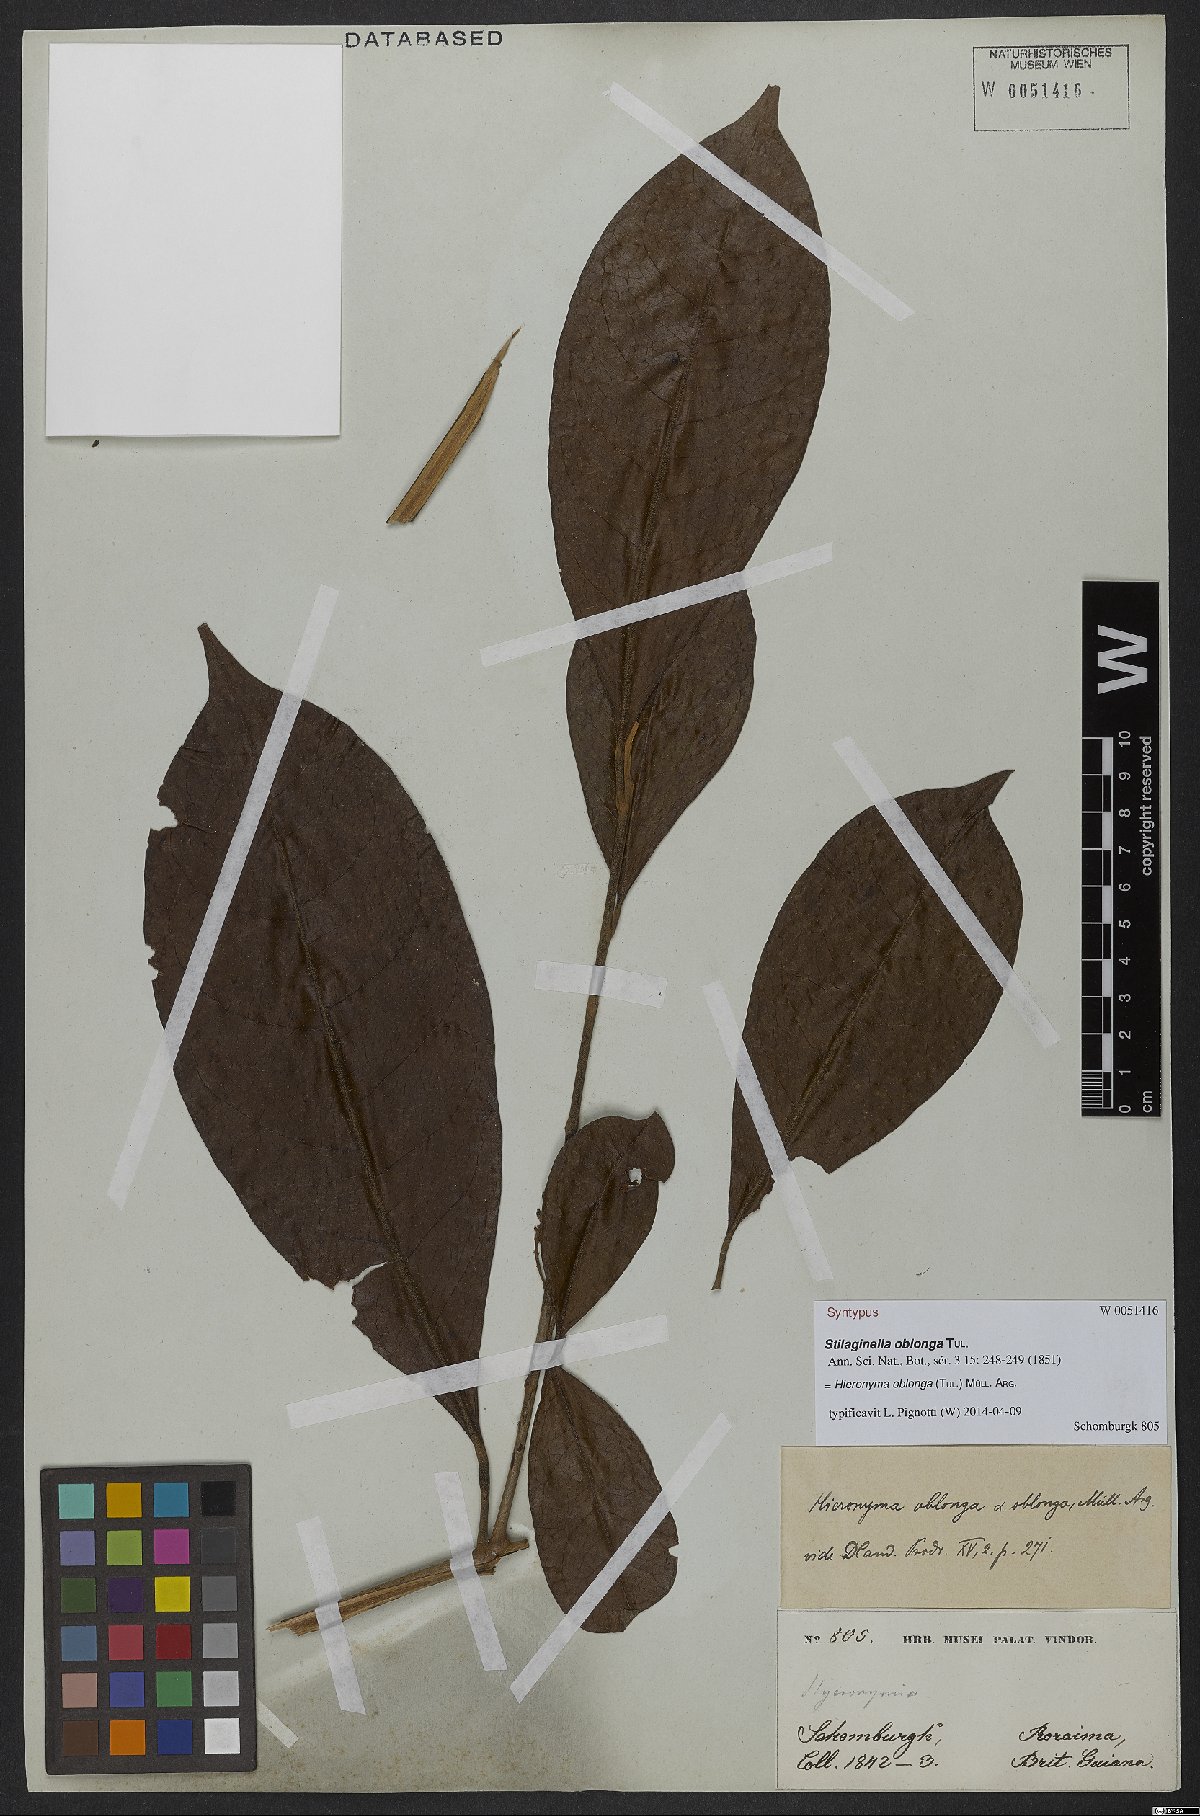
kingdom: Plantae
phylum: Tracheophyta
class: Magnoliopsida
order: Malpighiales
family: Phyllanthaceae
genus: Hieronyma
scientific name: Hieronyma oblonga
